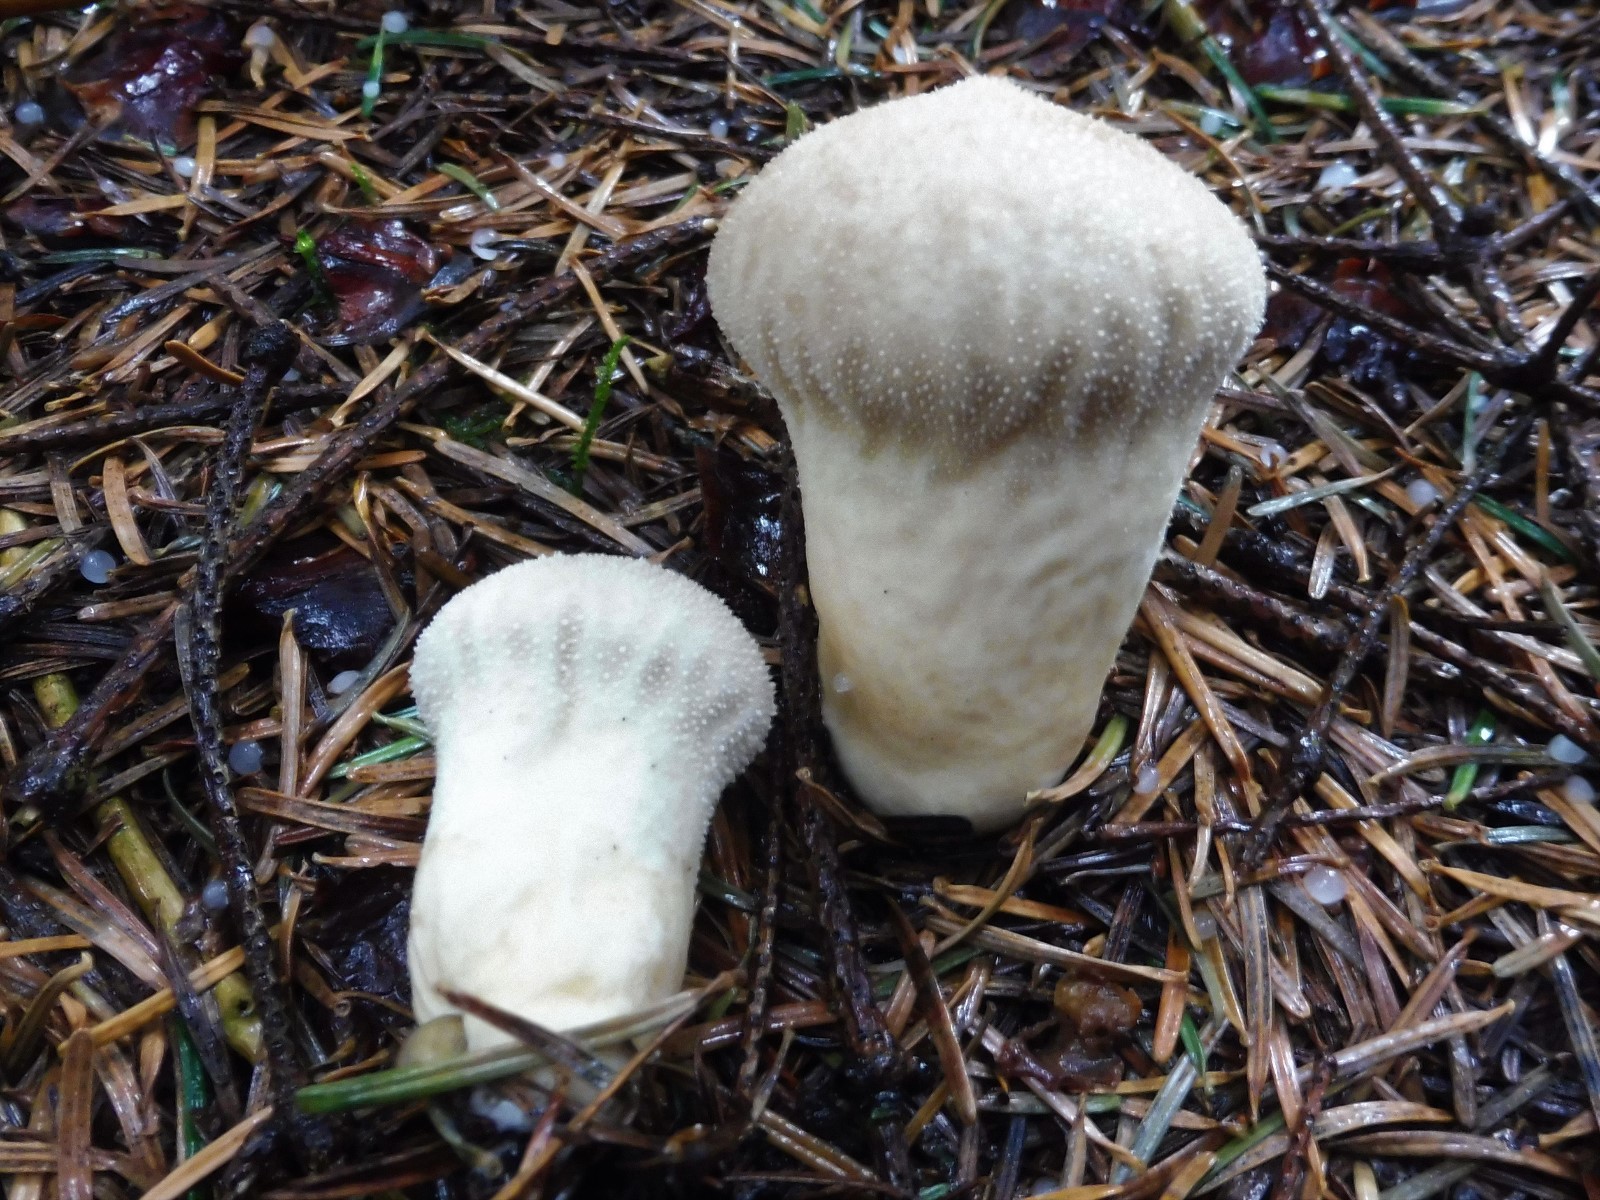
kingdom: Fungi
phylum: Basidiomycota
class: Agaricomycetes
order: Agaricales
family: Agaricaceae
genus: Lycoperdon
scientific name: Lycoperdon
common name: støvbold
